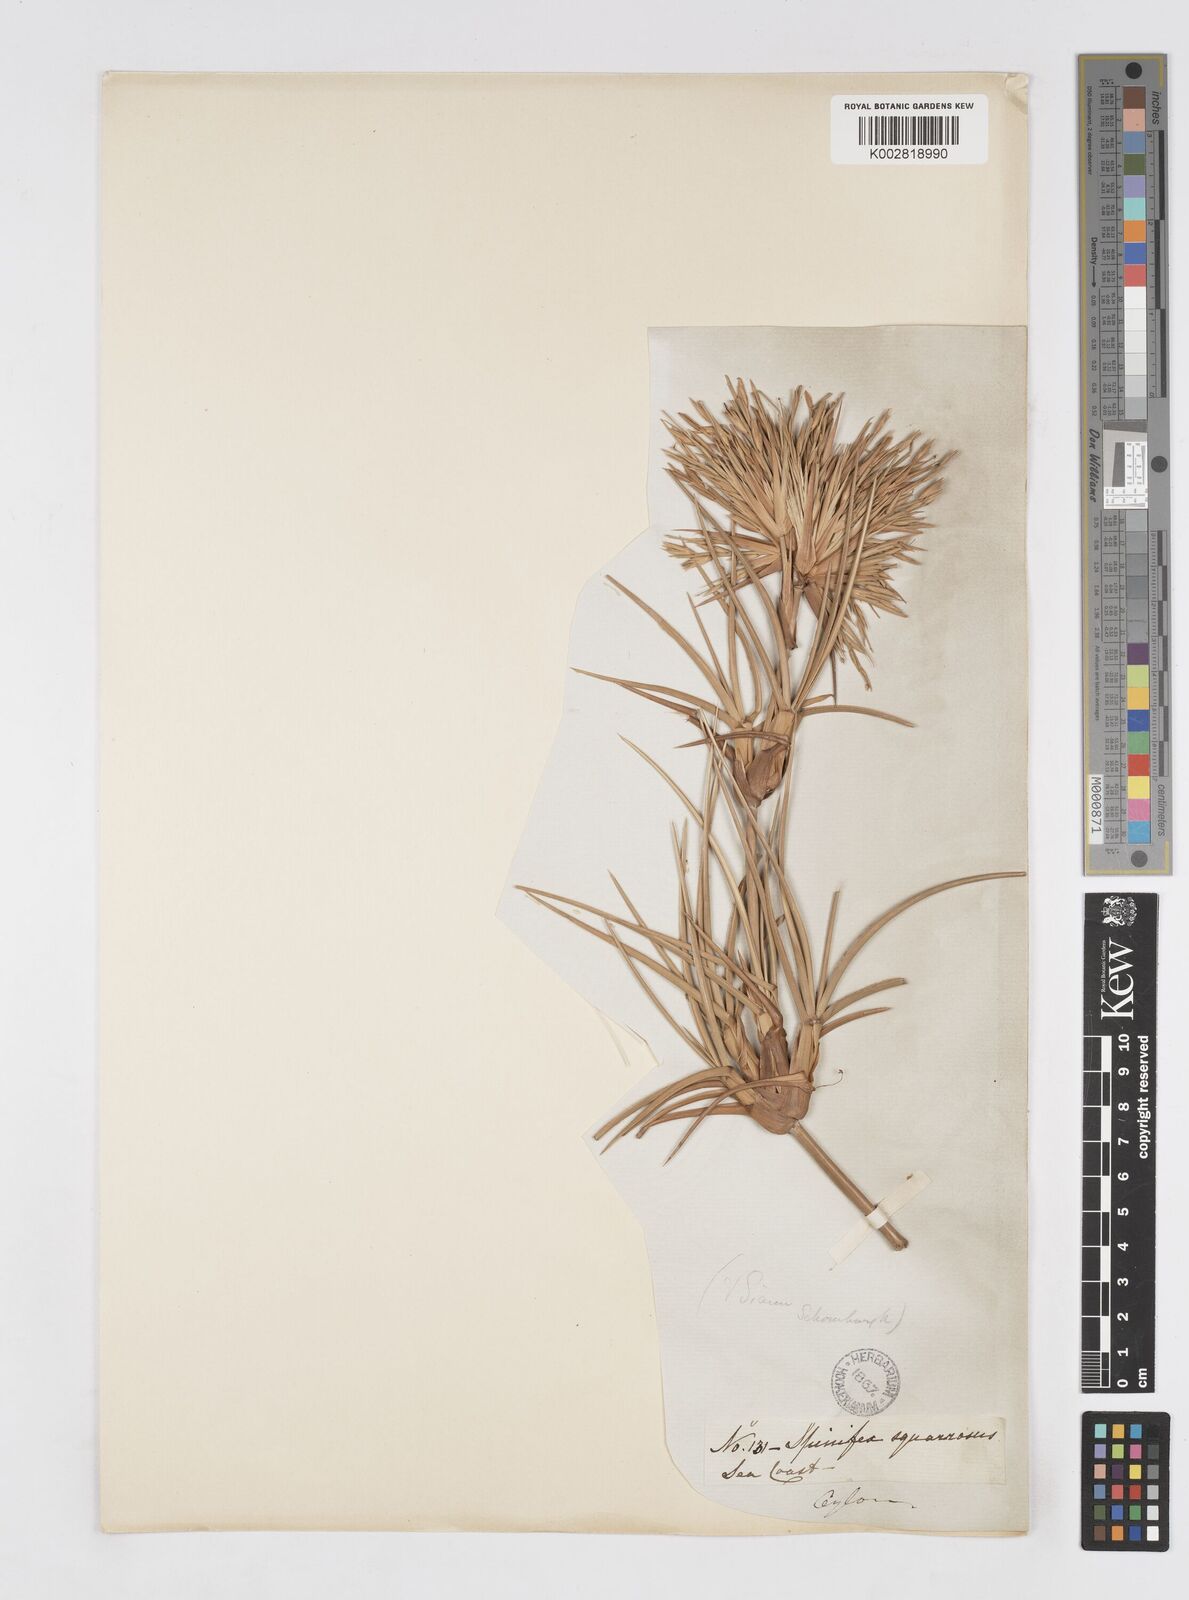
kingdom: Plantae
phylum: Tracheophyta
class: Liliopsida
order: Poales
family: Poaceae
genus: Spinifex
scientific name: Spinifex littoreus
